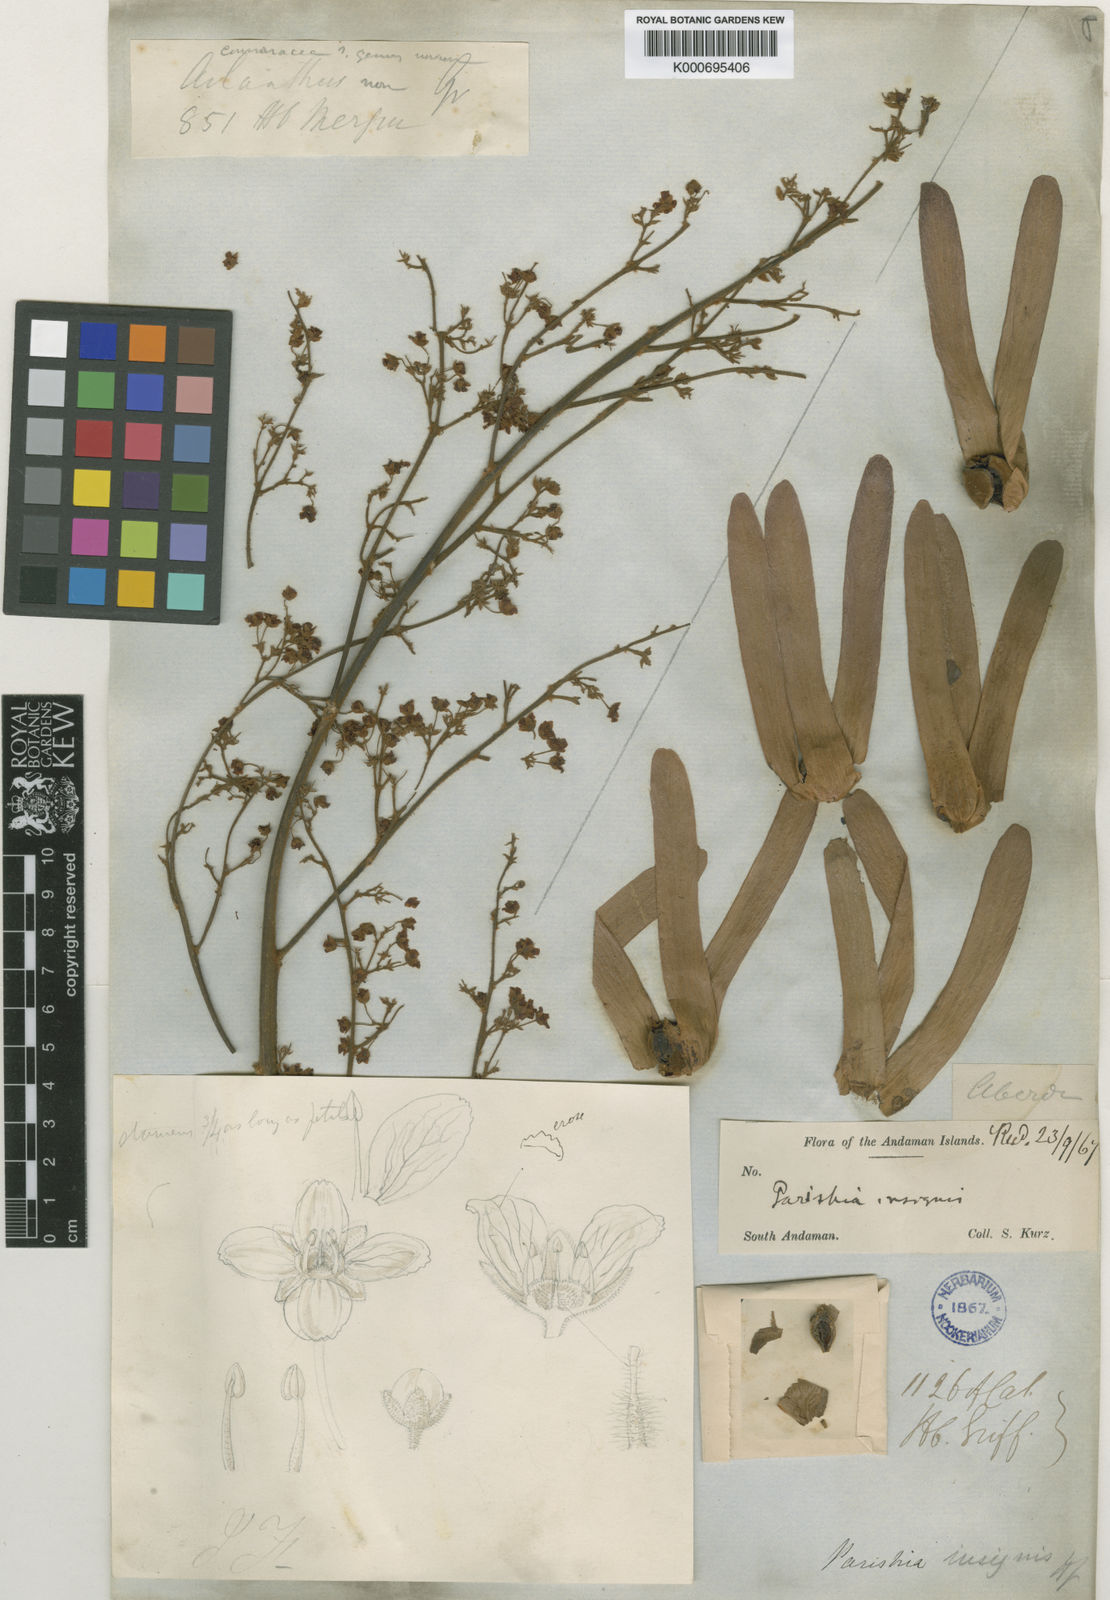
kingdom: Plantae
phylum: Tracheophyta
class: Magnoliopsida
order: Sapindales
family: Anacardiaceae
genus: Parishia
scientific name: Parishia insignis
